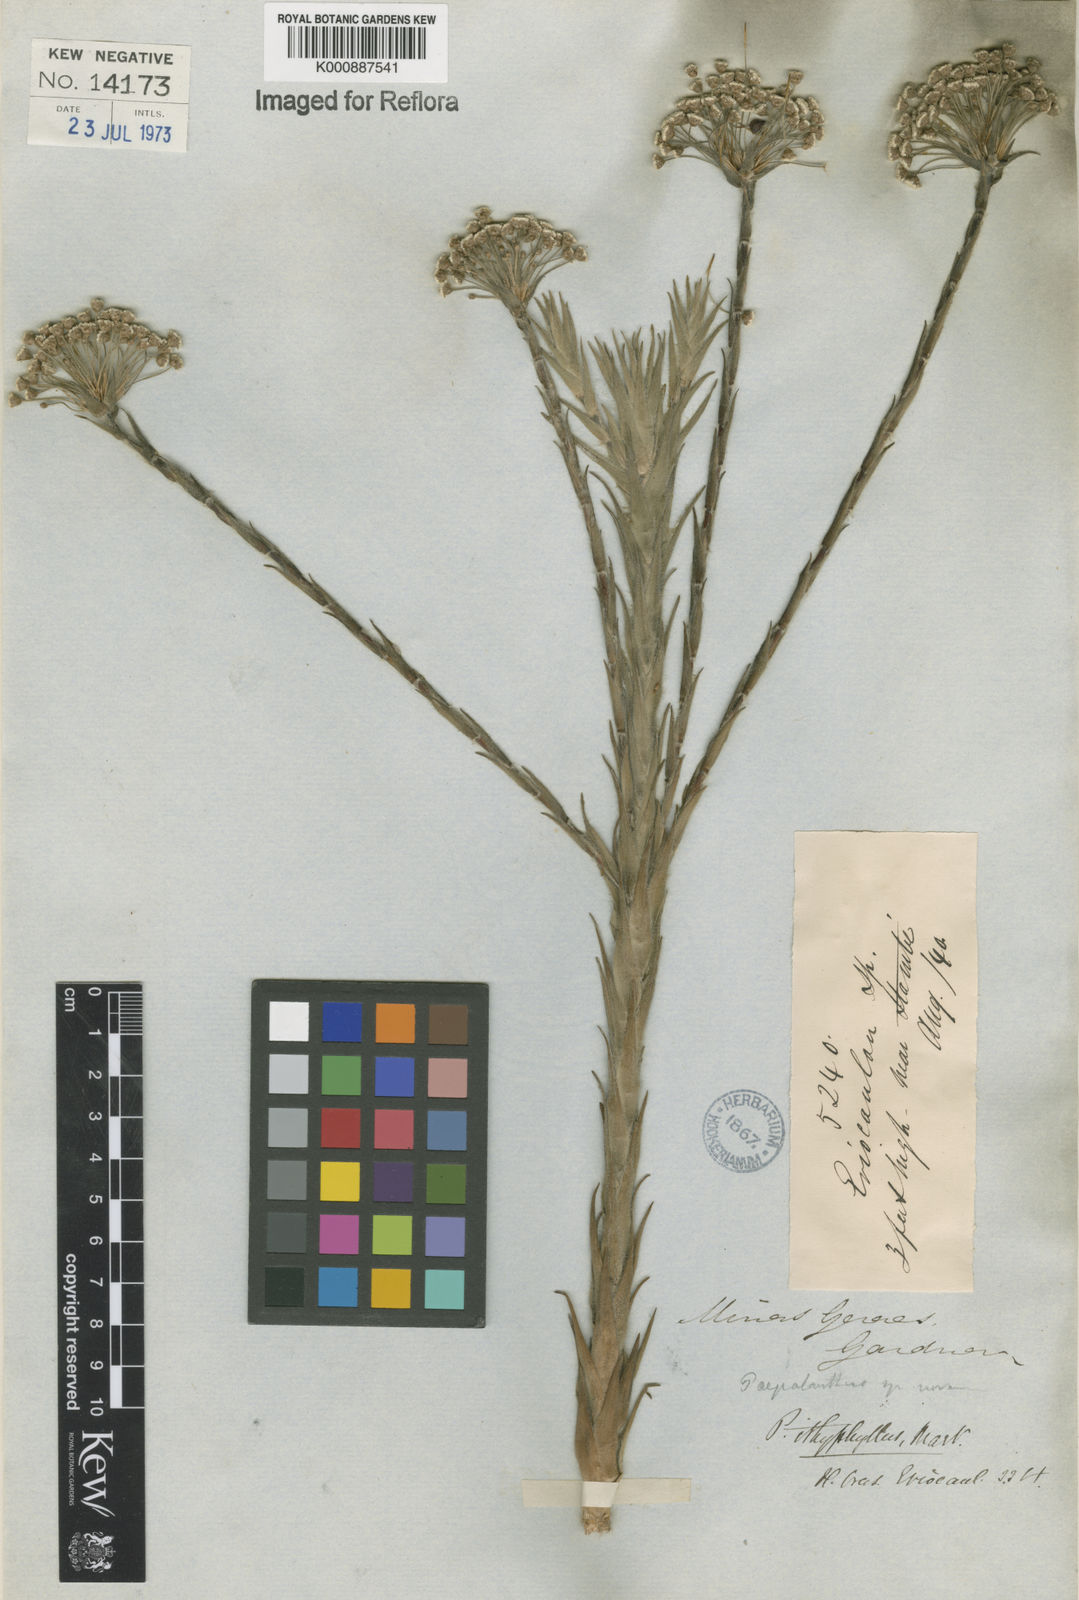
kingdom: Plantae
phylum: Tracheophyta
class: Liliopsida
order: Poales
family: Eriocaulaceae
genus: Paepalanthus
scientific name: Paepalanthus ithyphyllus
